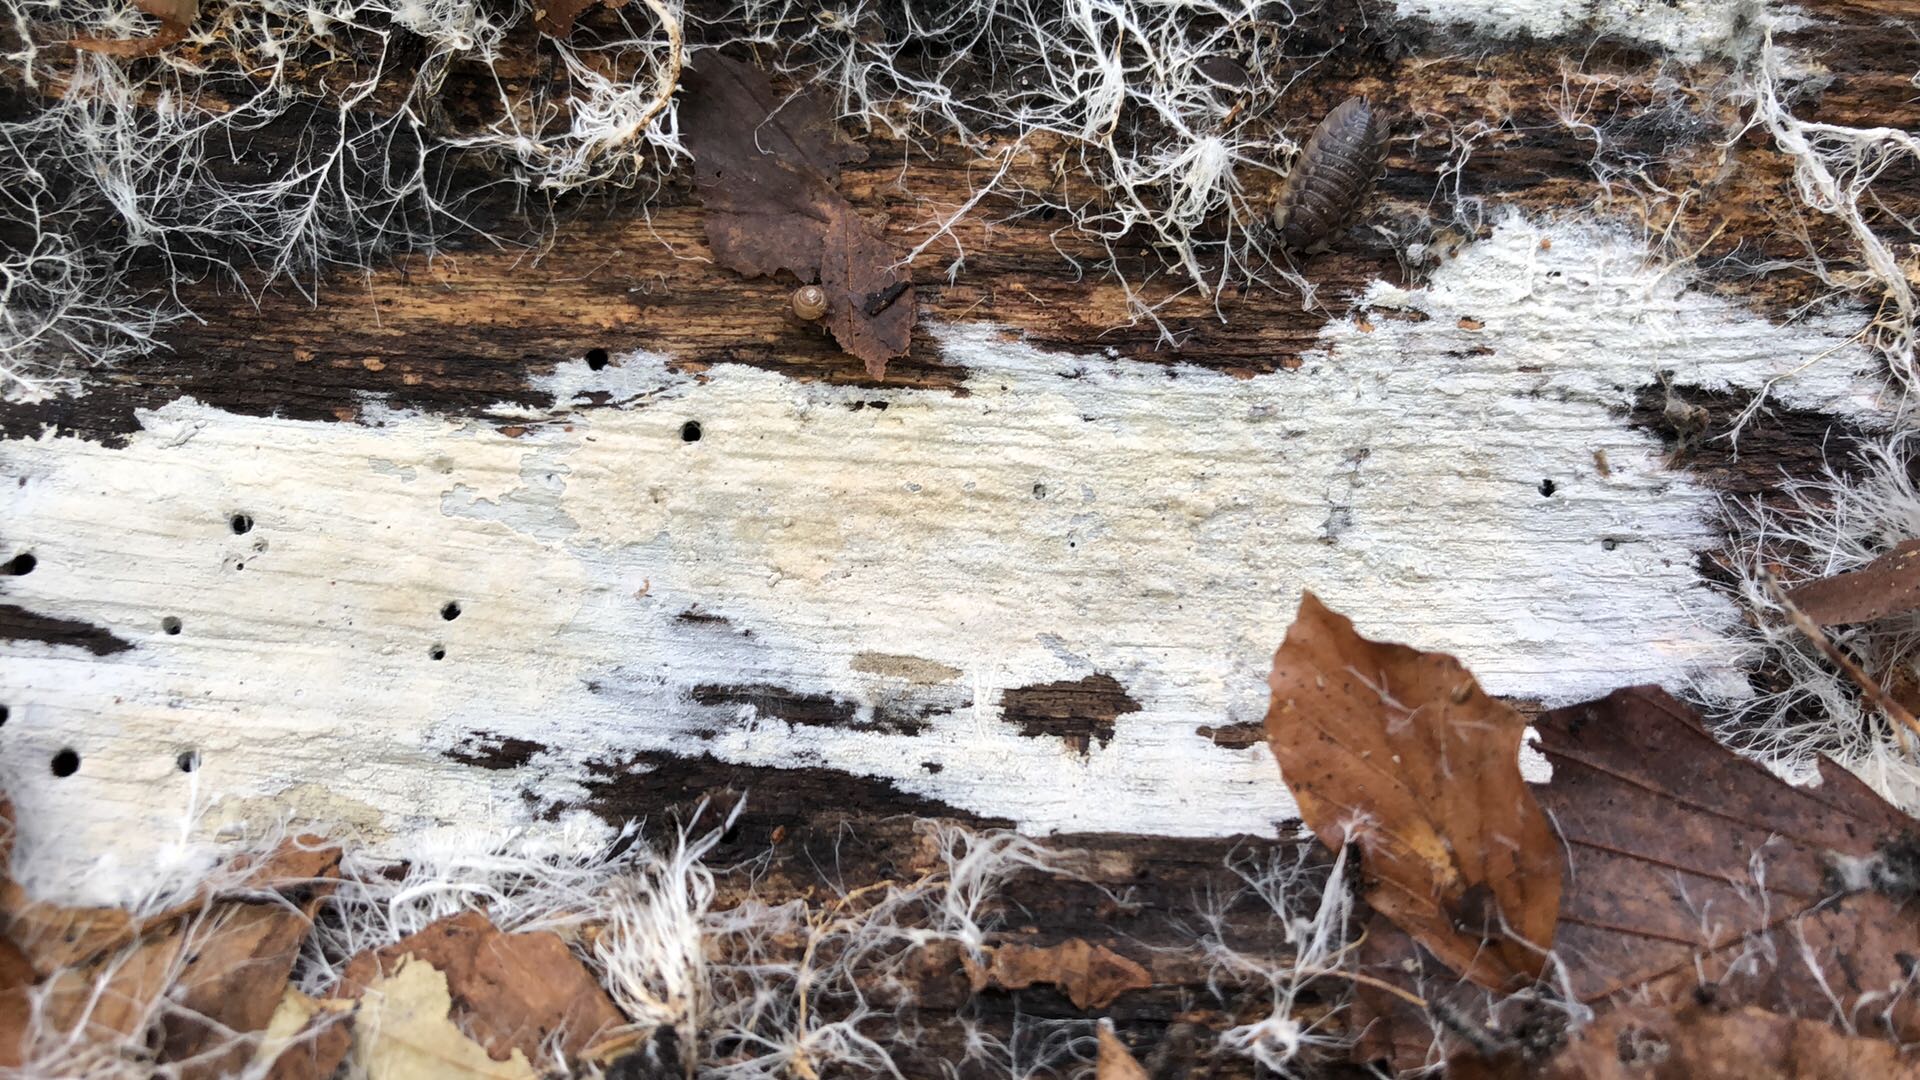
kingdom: Fungi
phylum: Basidiomycota
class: Agaricomycetes
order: Cantharellales
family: Hydnaceae
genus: Sistotrema
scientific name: Sistotrema
